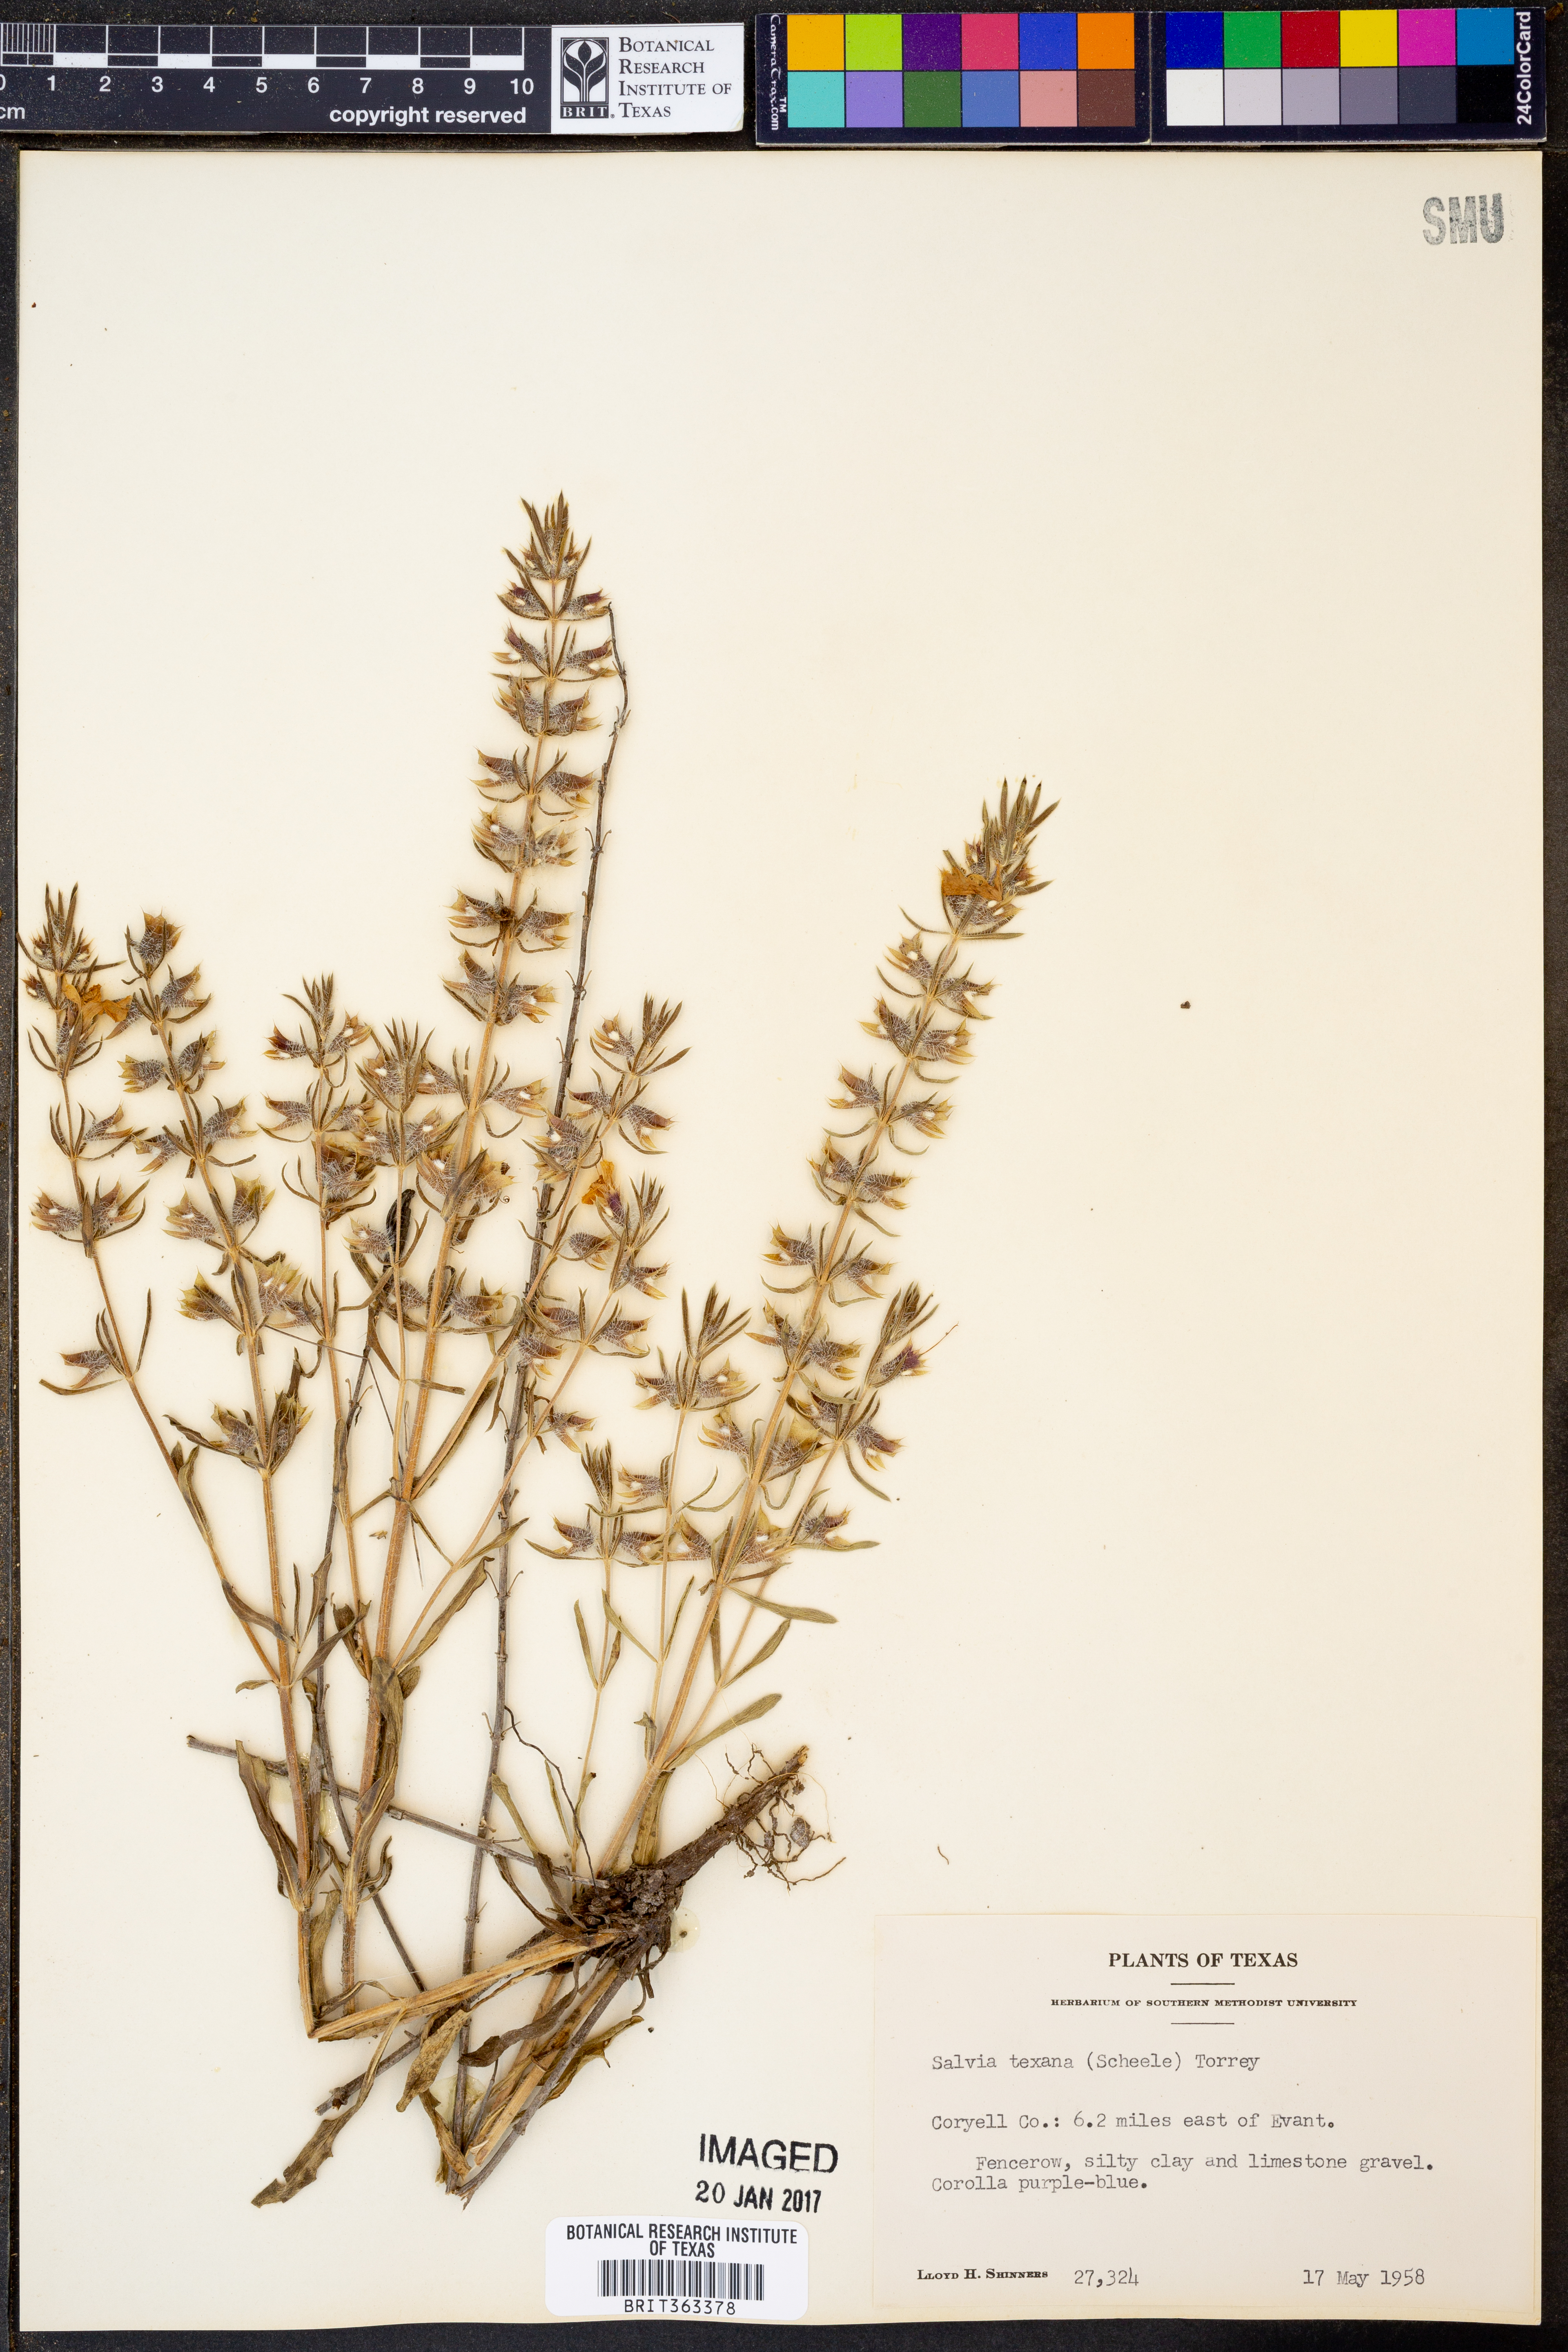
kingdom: Plantae
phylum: Tracheophyta
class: Magnoliopsida
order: Lamiales
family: Lamiaceae
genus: Salvia
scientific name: Salvia texana
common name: Texas sage
